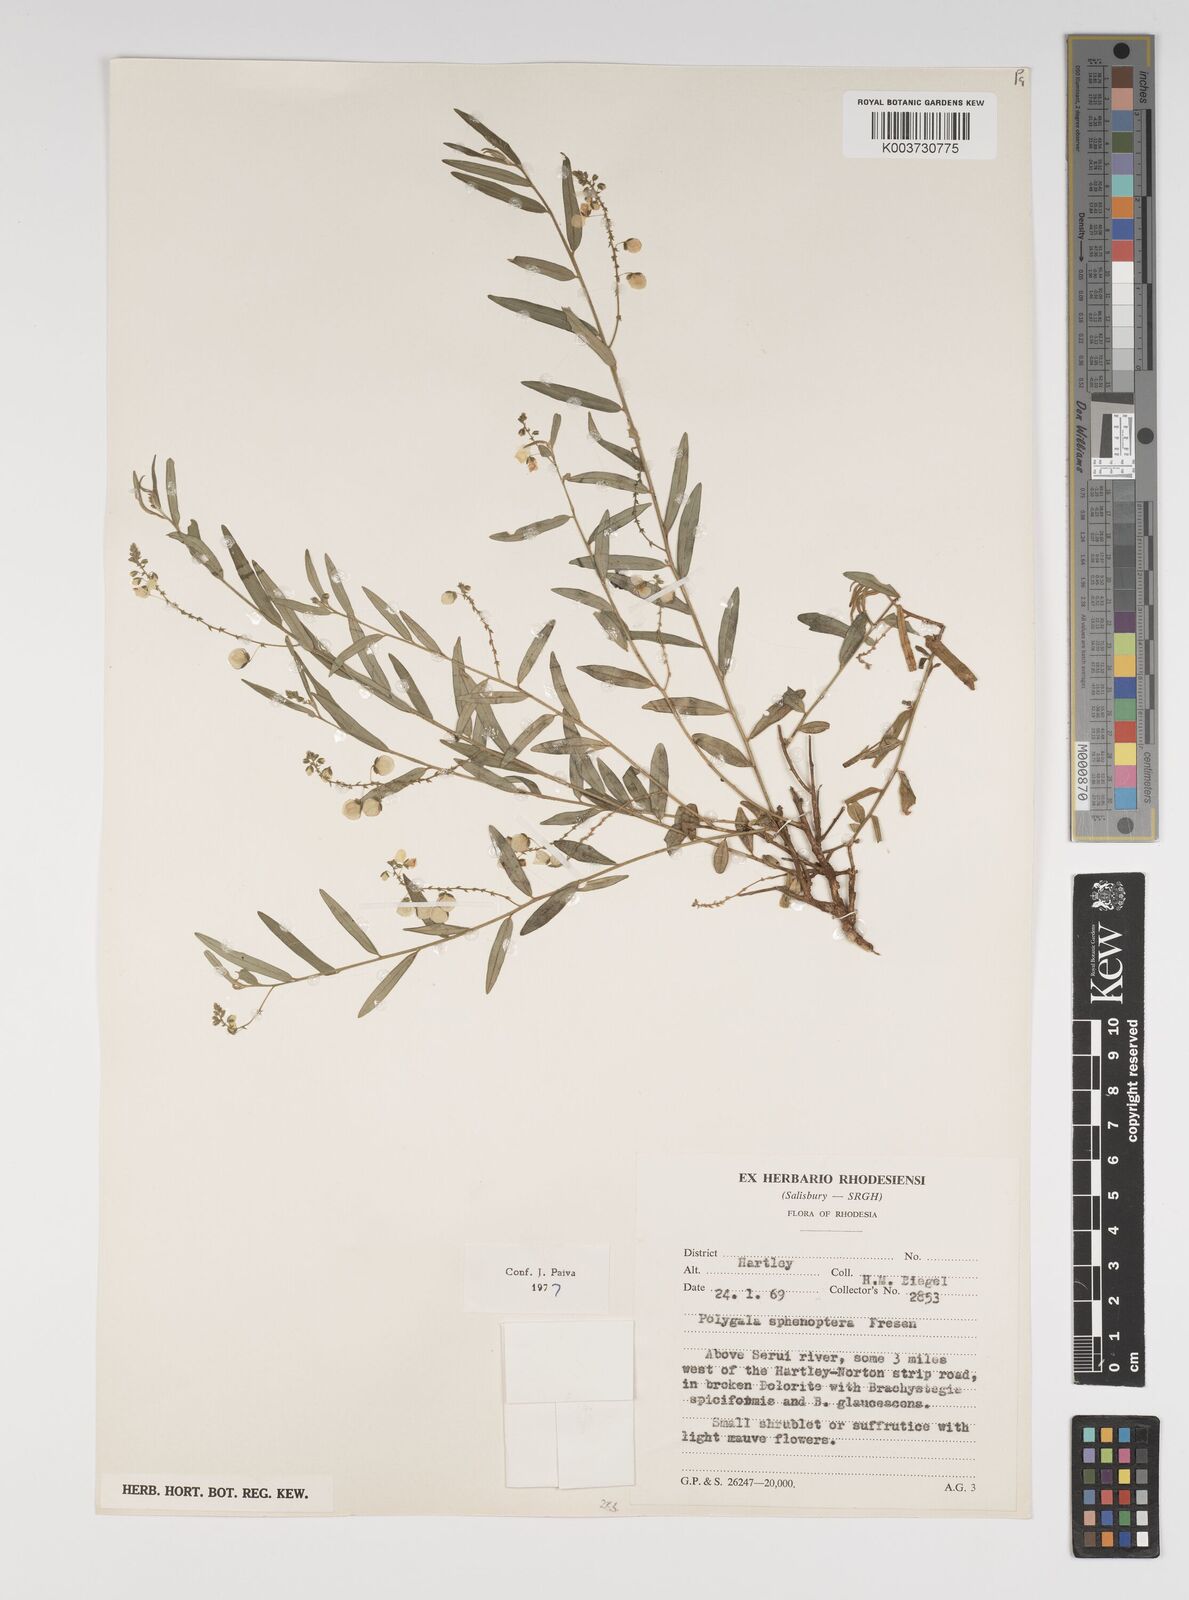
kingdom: Plantae
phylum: Tracheophyta
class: Magnoliopsida
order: Fabales
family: Polygalaceae
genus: Polygala
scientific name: Polygala sphenoptera
